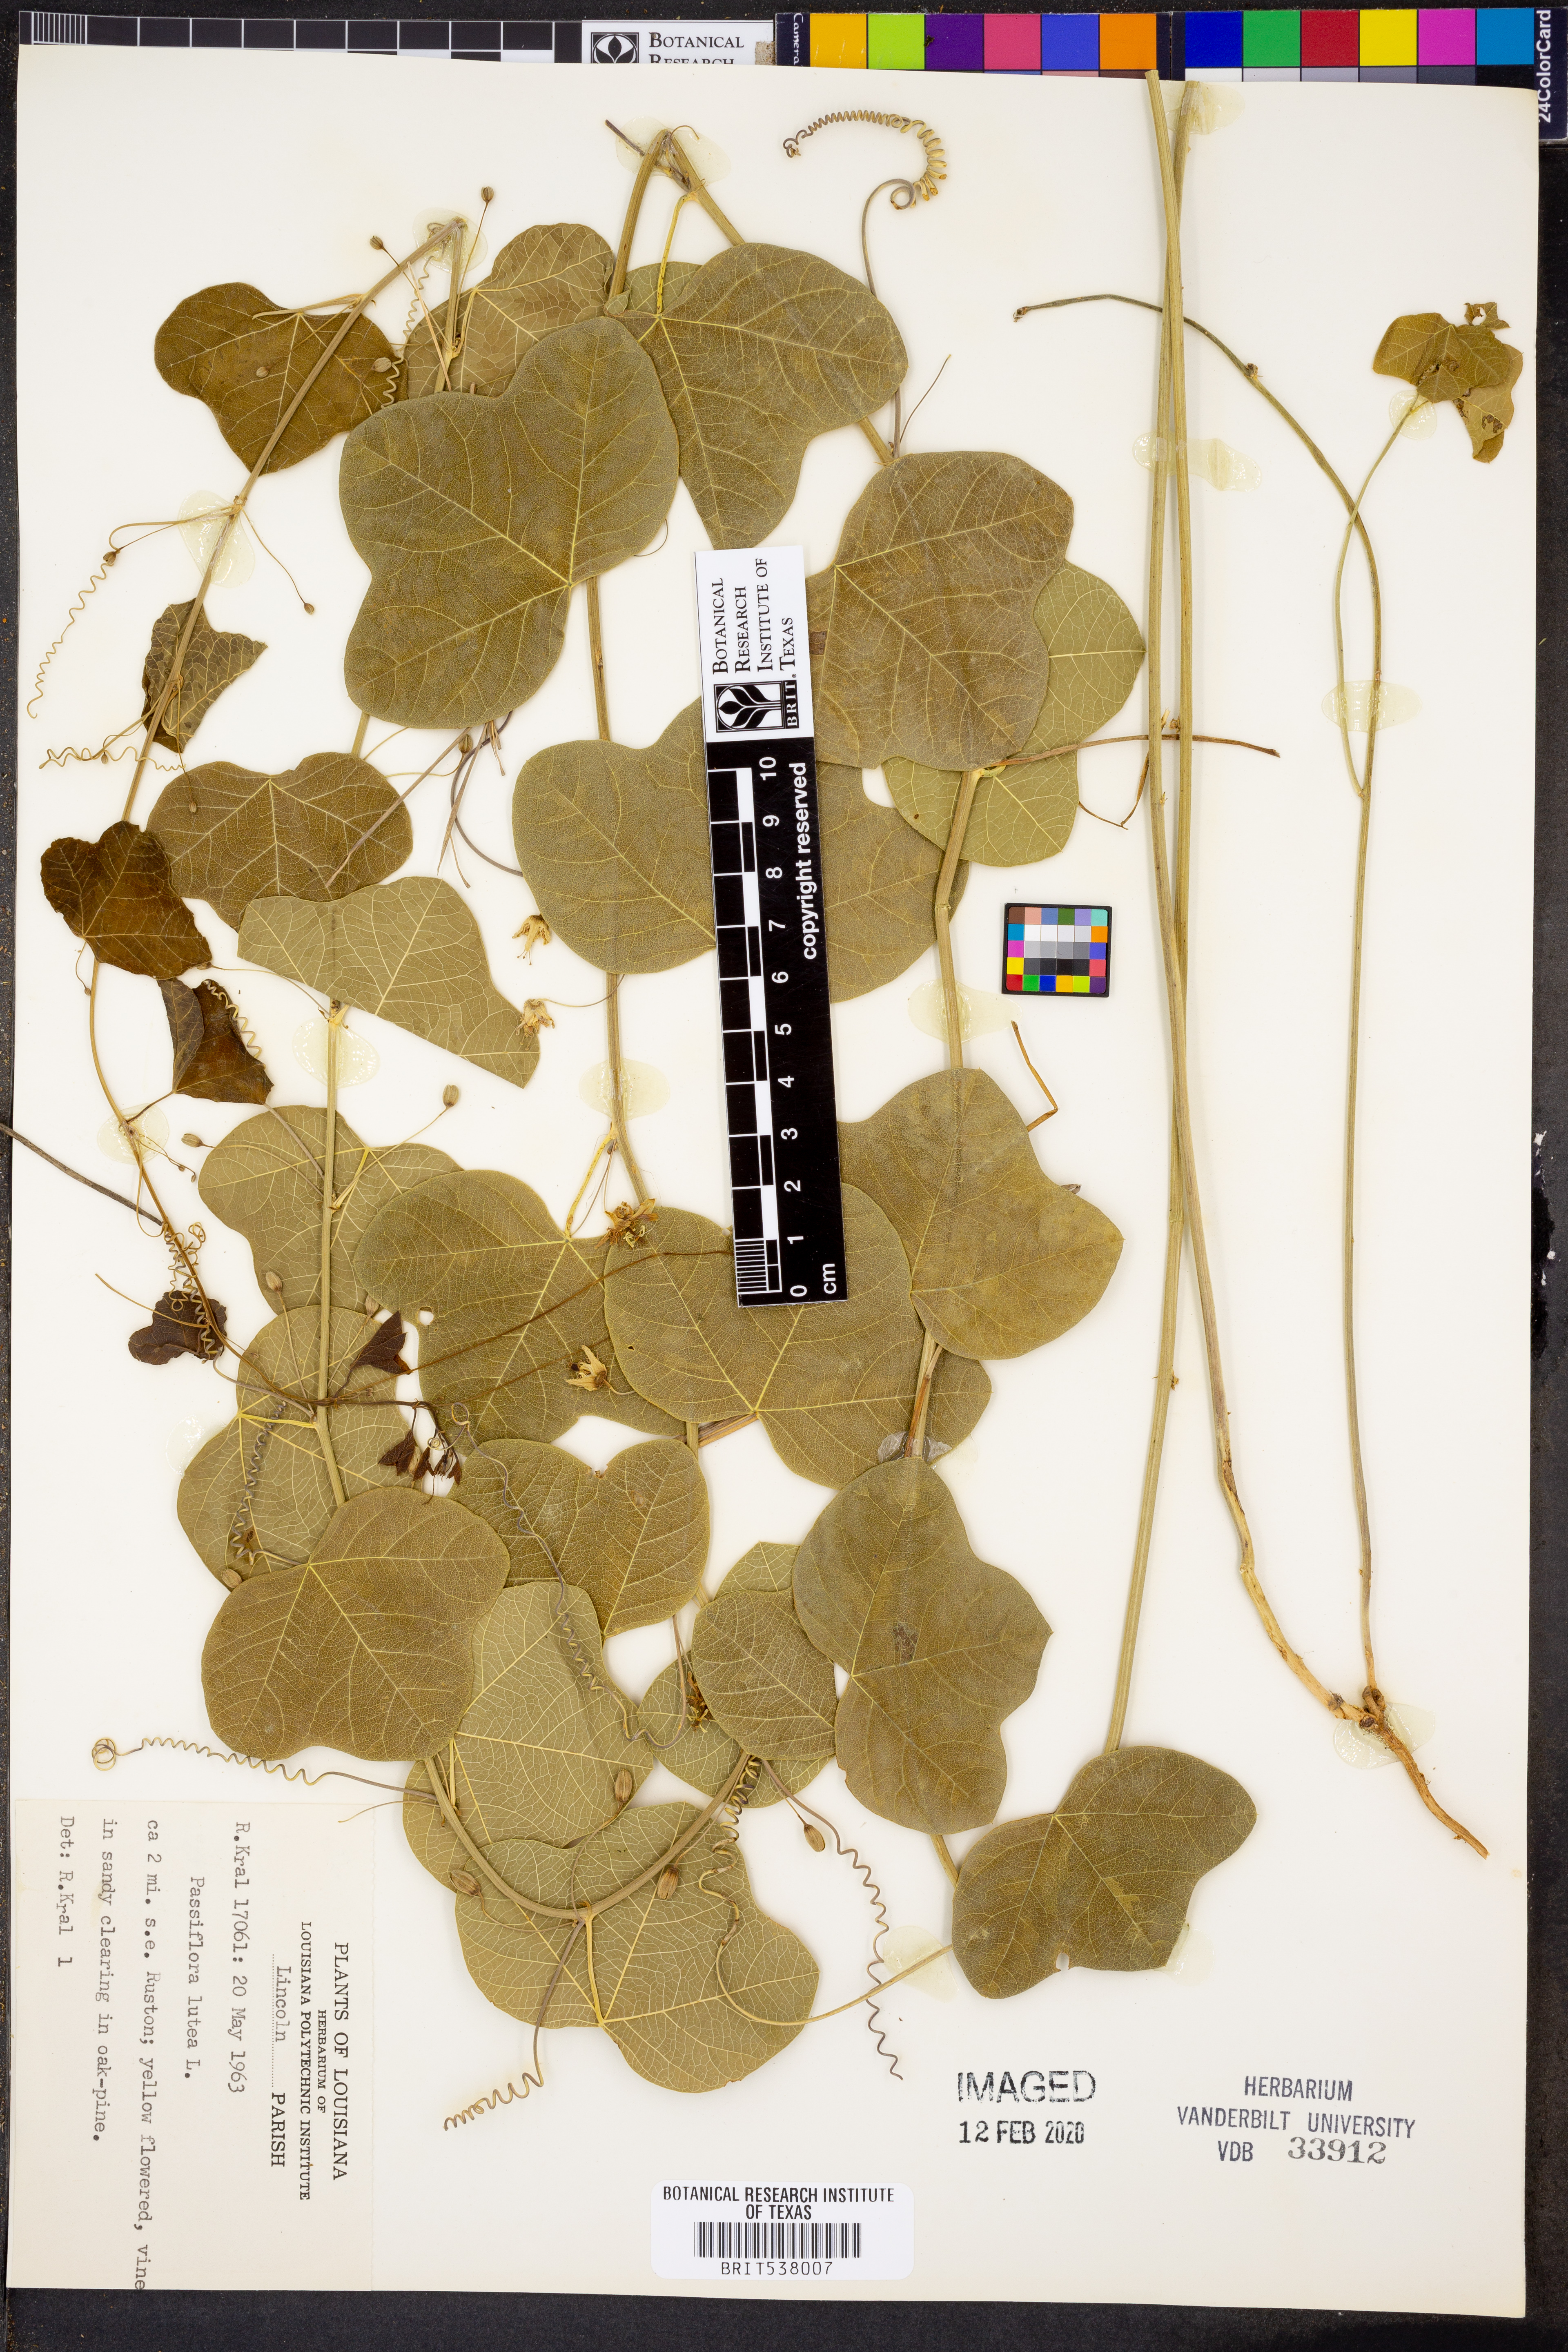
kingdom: Plantae
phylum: Tracheophyta
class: Magnoliopsida
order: Malpighiales
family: Passifloraceae
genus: Passiflora
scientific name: Passiflora lutea
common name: Yellow passionflower
